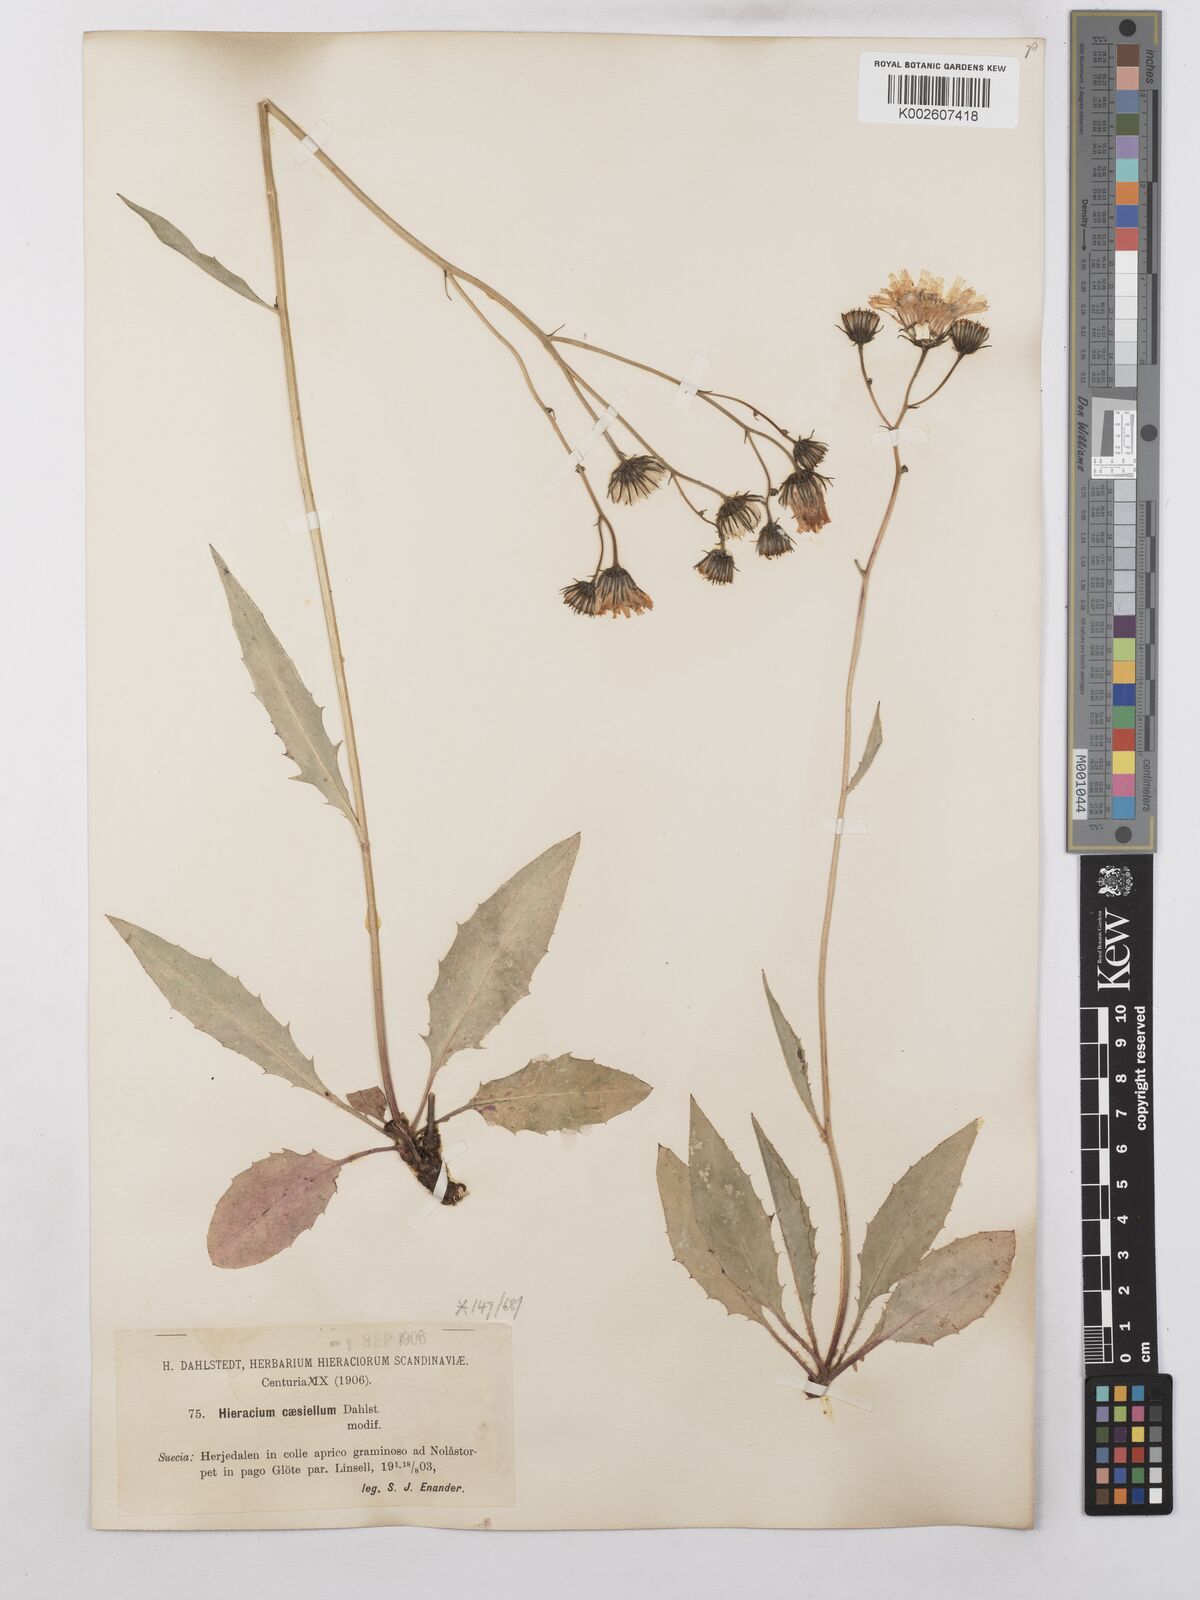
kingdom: Plantae
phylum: Tracheophyta
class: Magnoliopsida
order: Asterales
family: Asteraceae
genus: Hieracium
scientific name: Hieracium caesium
